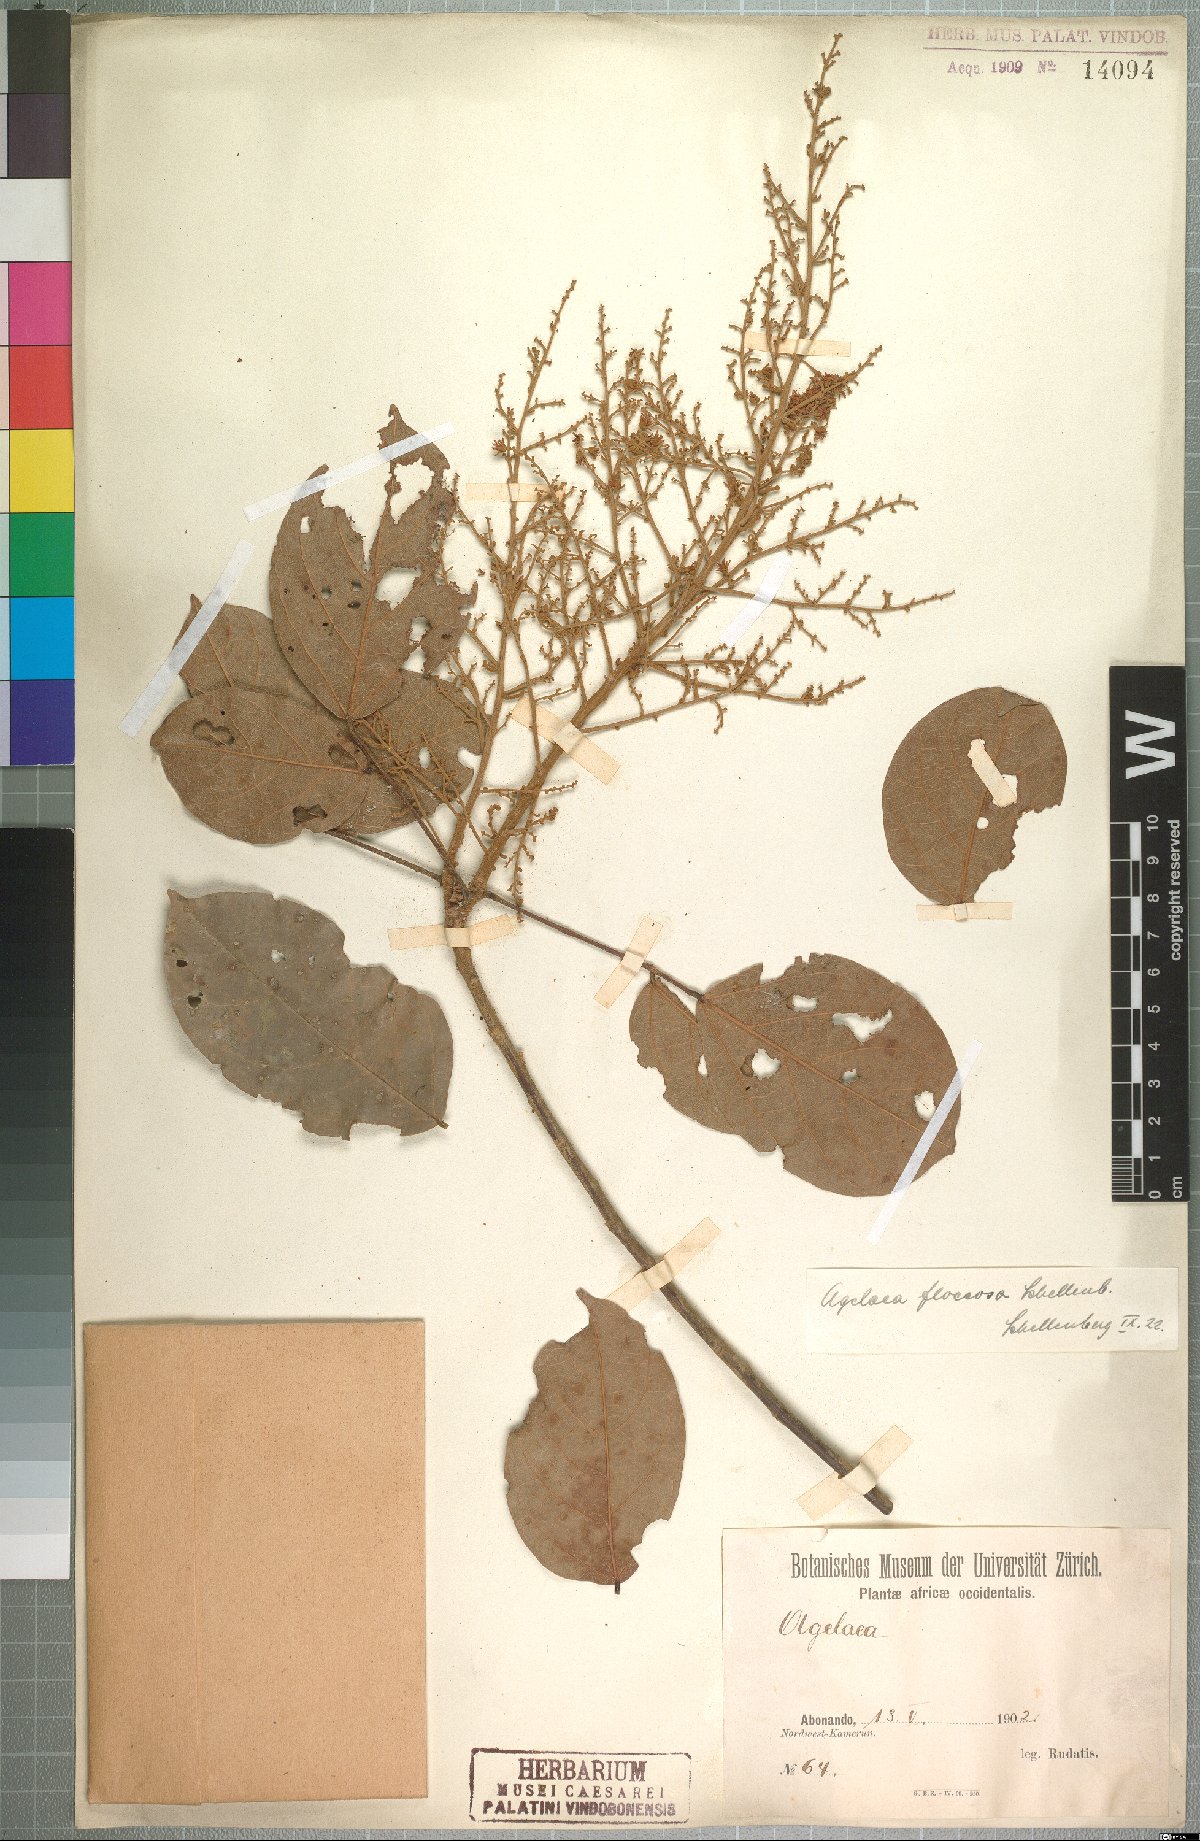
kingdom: Plantae
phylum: Tracheophyta
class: Magnoliopsida
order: Oxalidales
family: Connaraceae
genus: Agelaea
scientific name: Agelaea pentagyna
